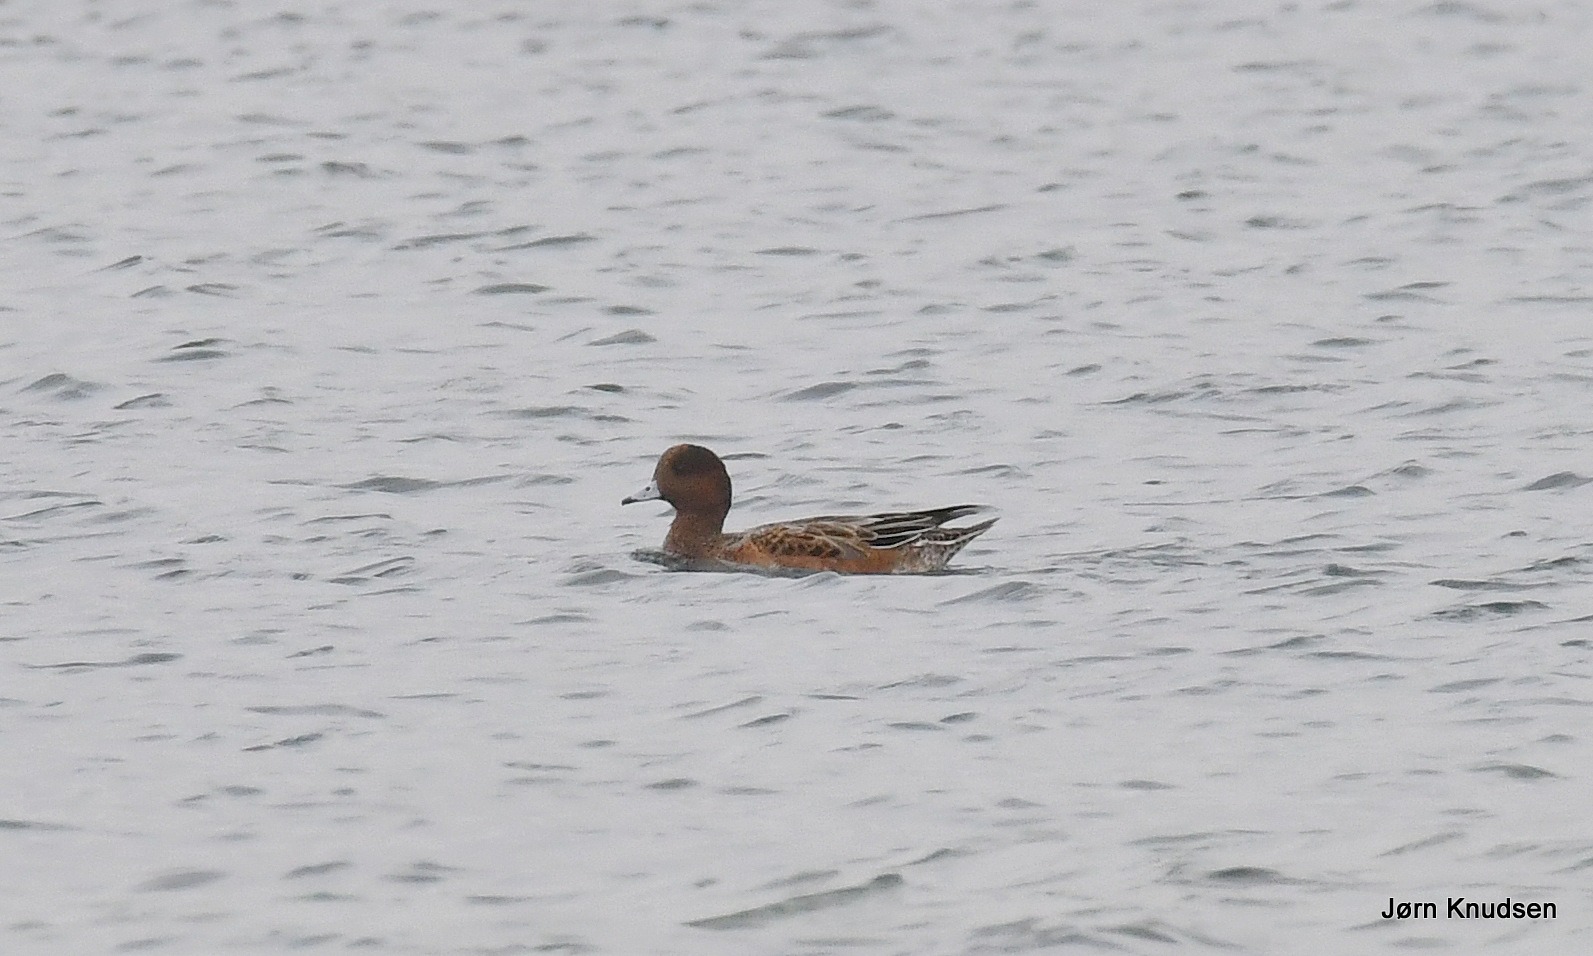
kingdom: Animalia
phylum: Chordata
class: Aves
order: Anseriformes
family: Anatidae
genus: Mareca
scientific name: Mareca penelope
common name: Pibeand
